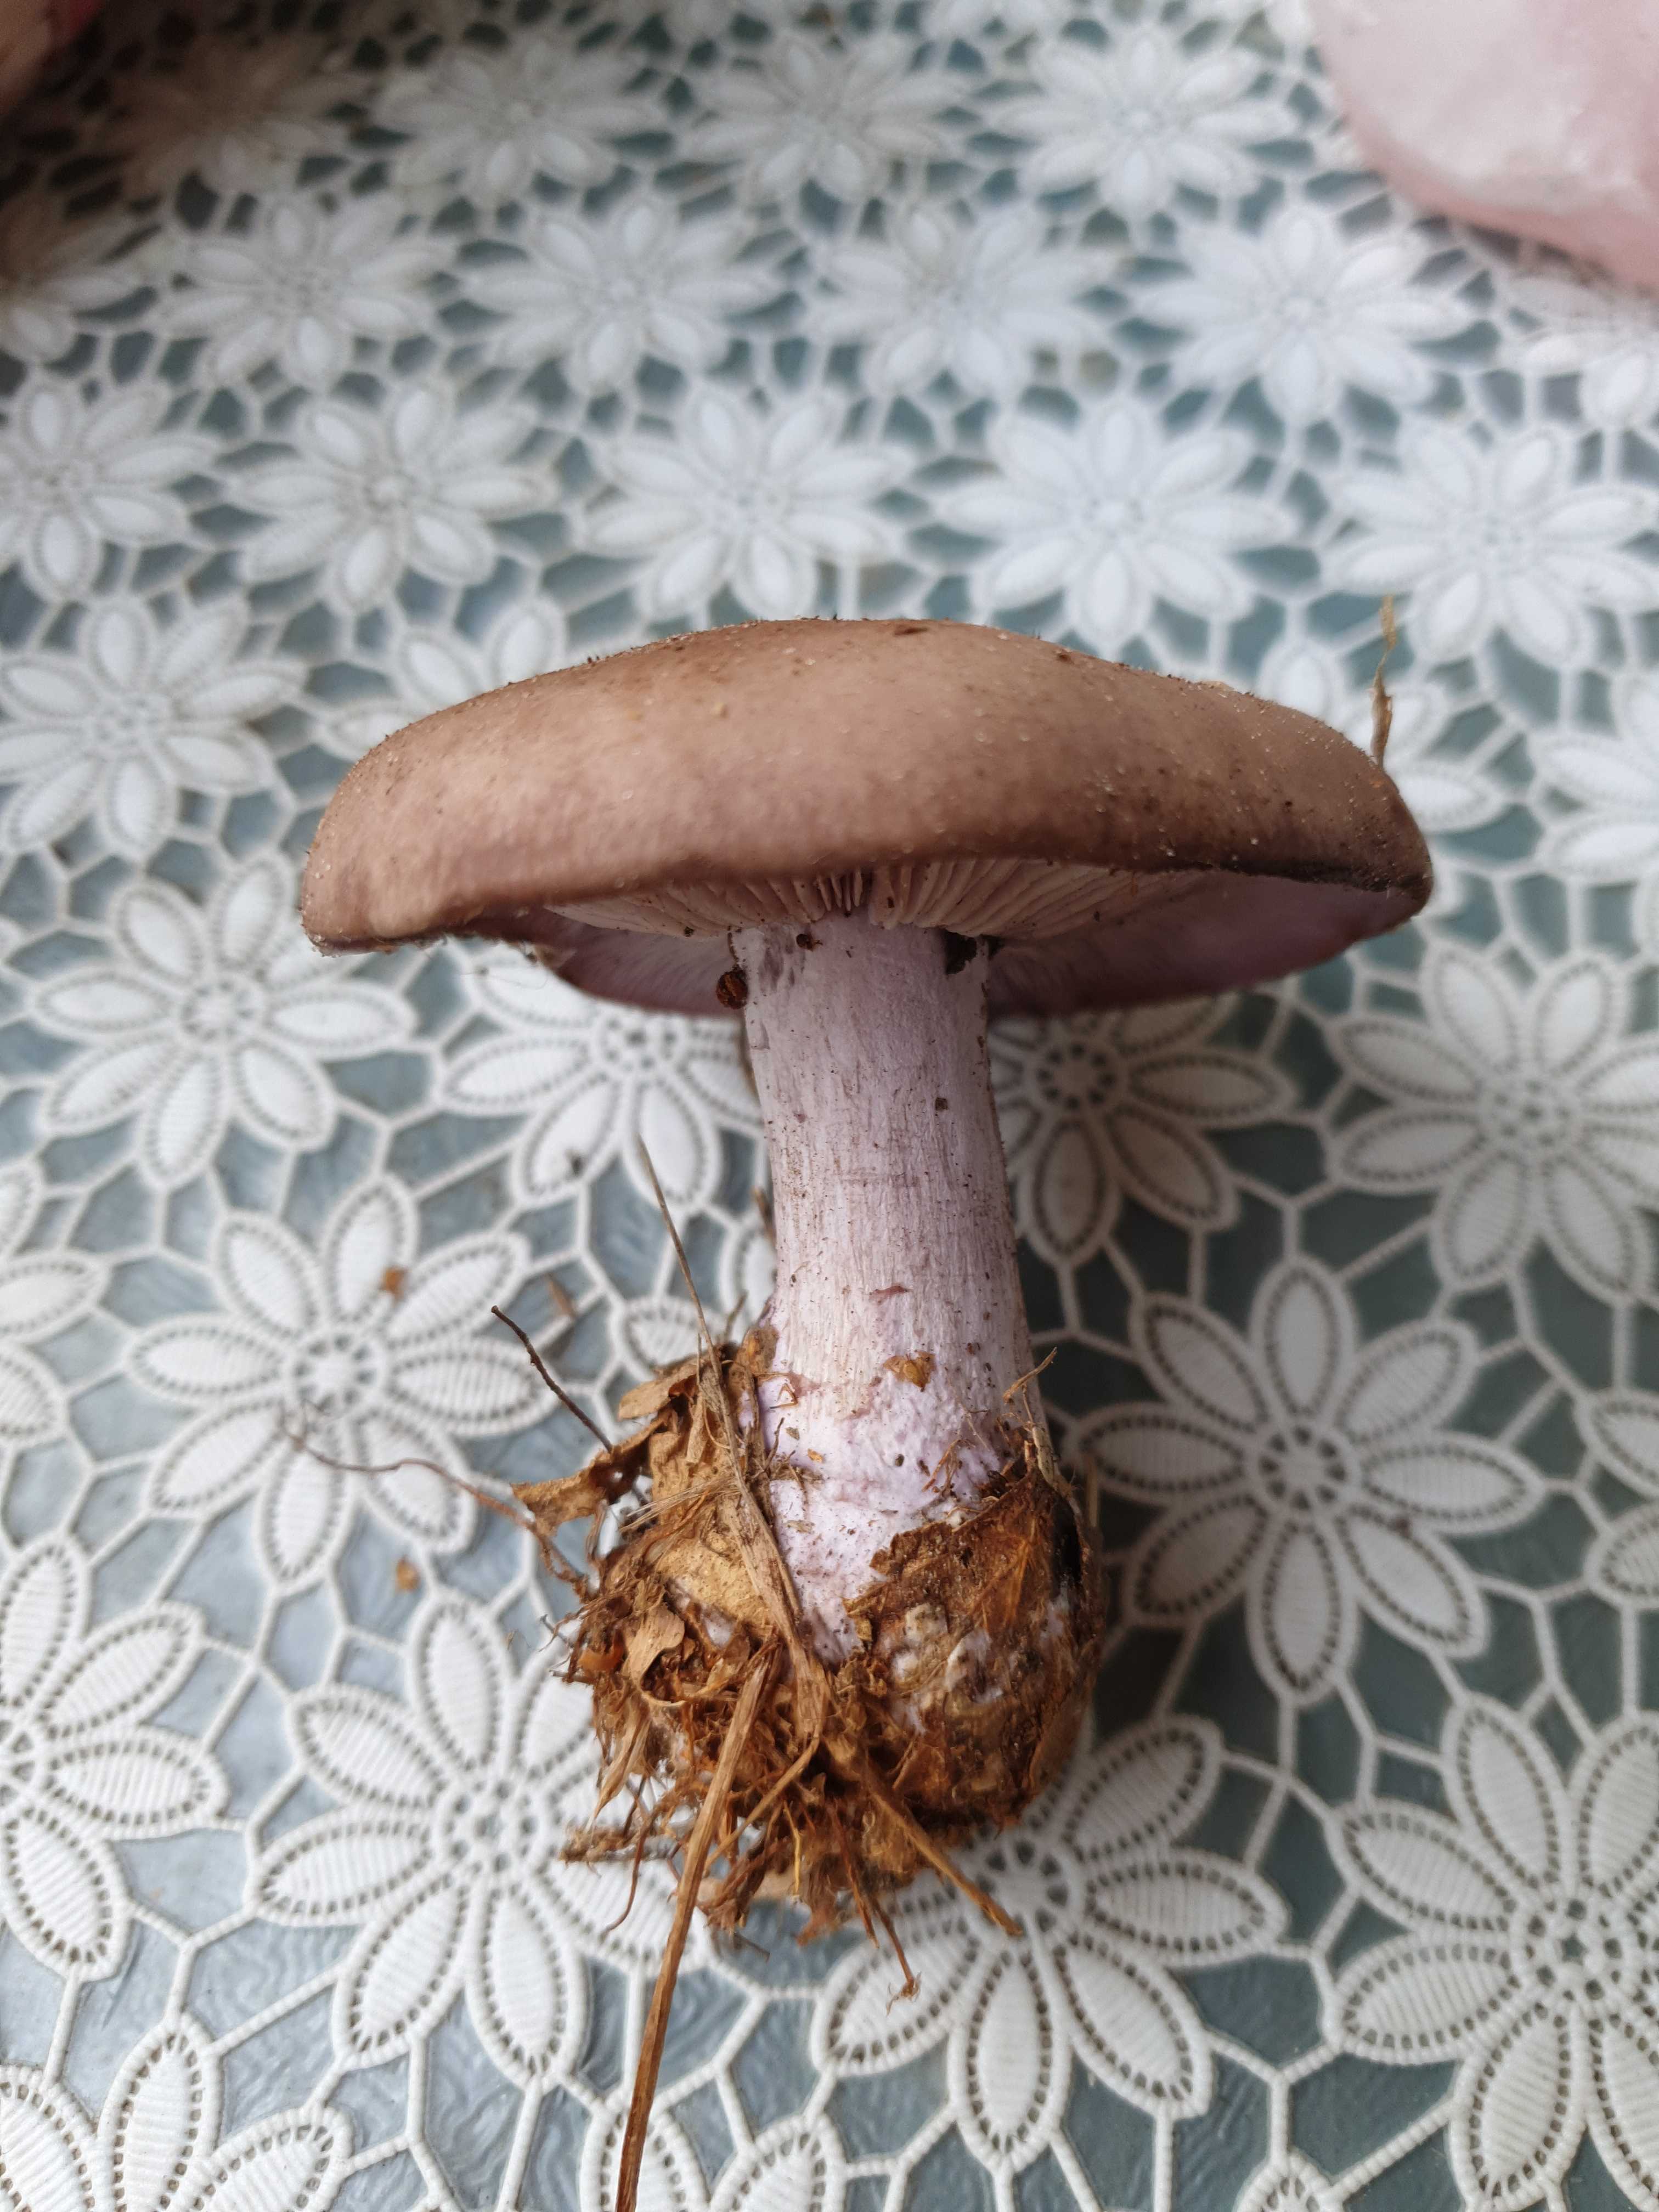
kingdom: Fungi
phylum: Basidiomycota
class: Agaricomycetes
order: Agaricales
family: Tricholomataceae
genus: Lepista
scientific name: Lepista nuda
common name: violet hekseringshat
